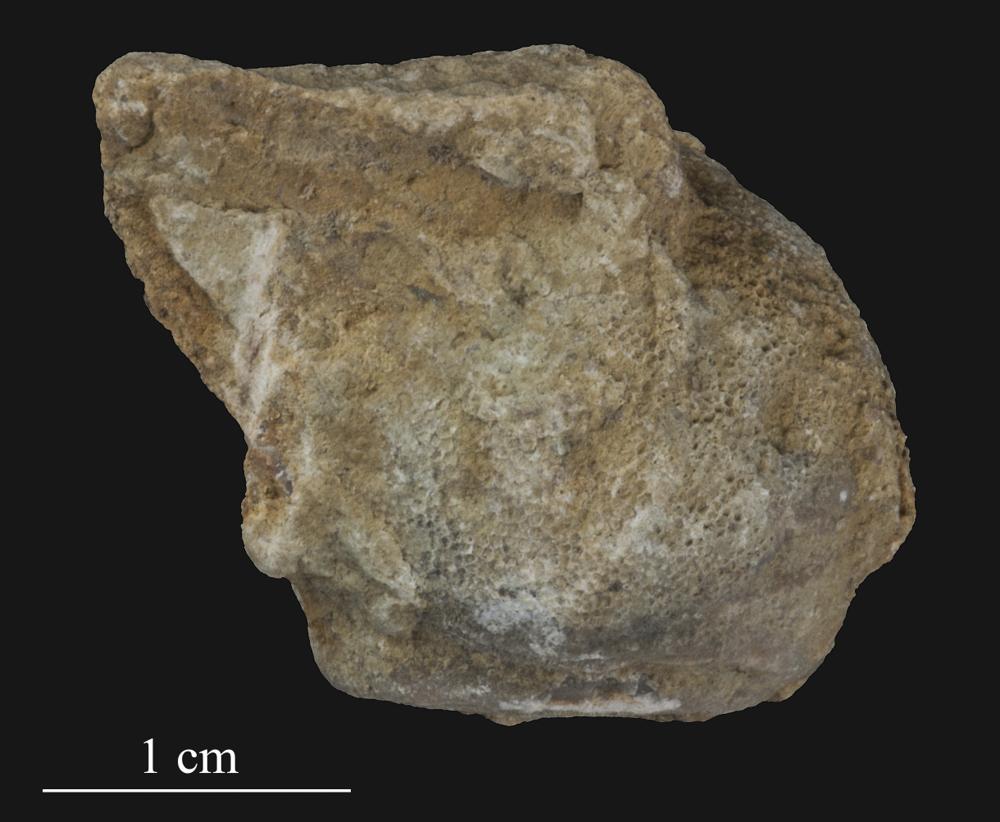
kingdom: Animalia
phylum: Bryozoa
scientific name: Bryozoa
